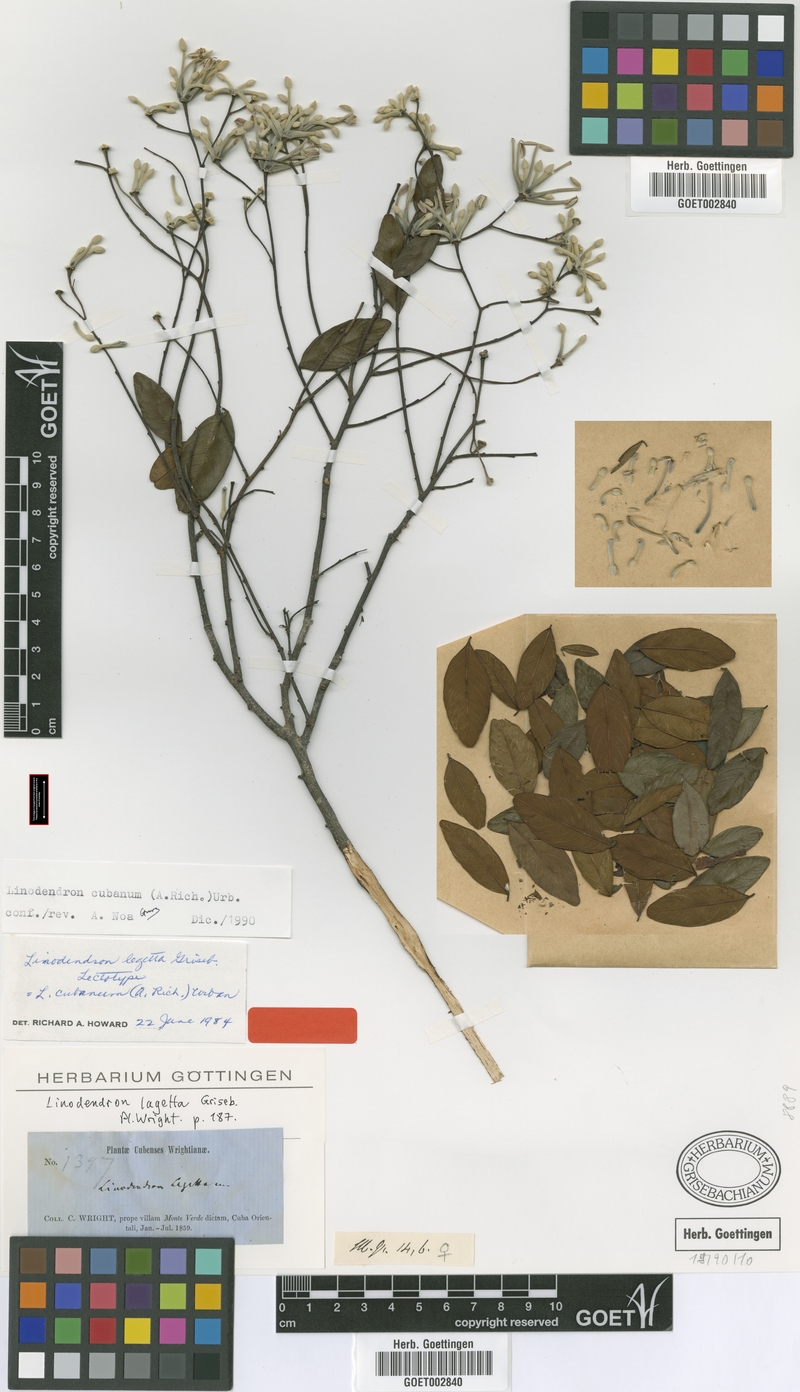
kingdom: Plantae
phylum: Tracheophyta
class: Magnoliopsida
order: Malvales
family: Thymelaeaceae
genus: Linodendron
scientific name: Linodendron cubanum
